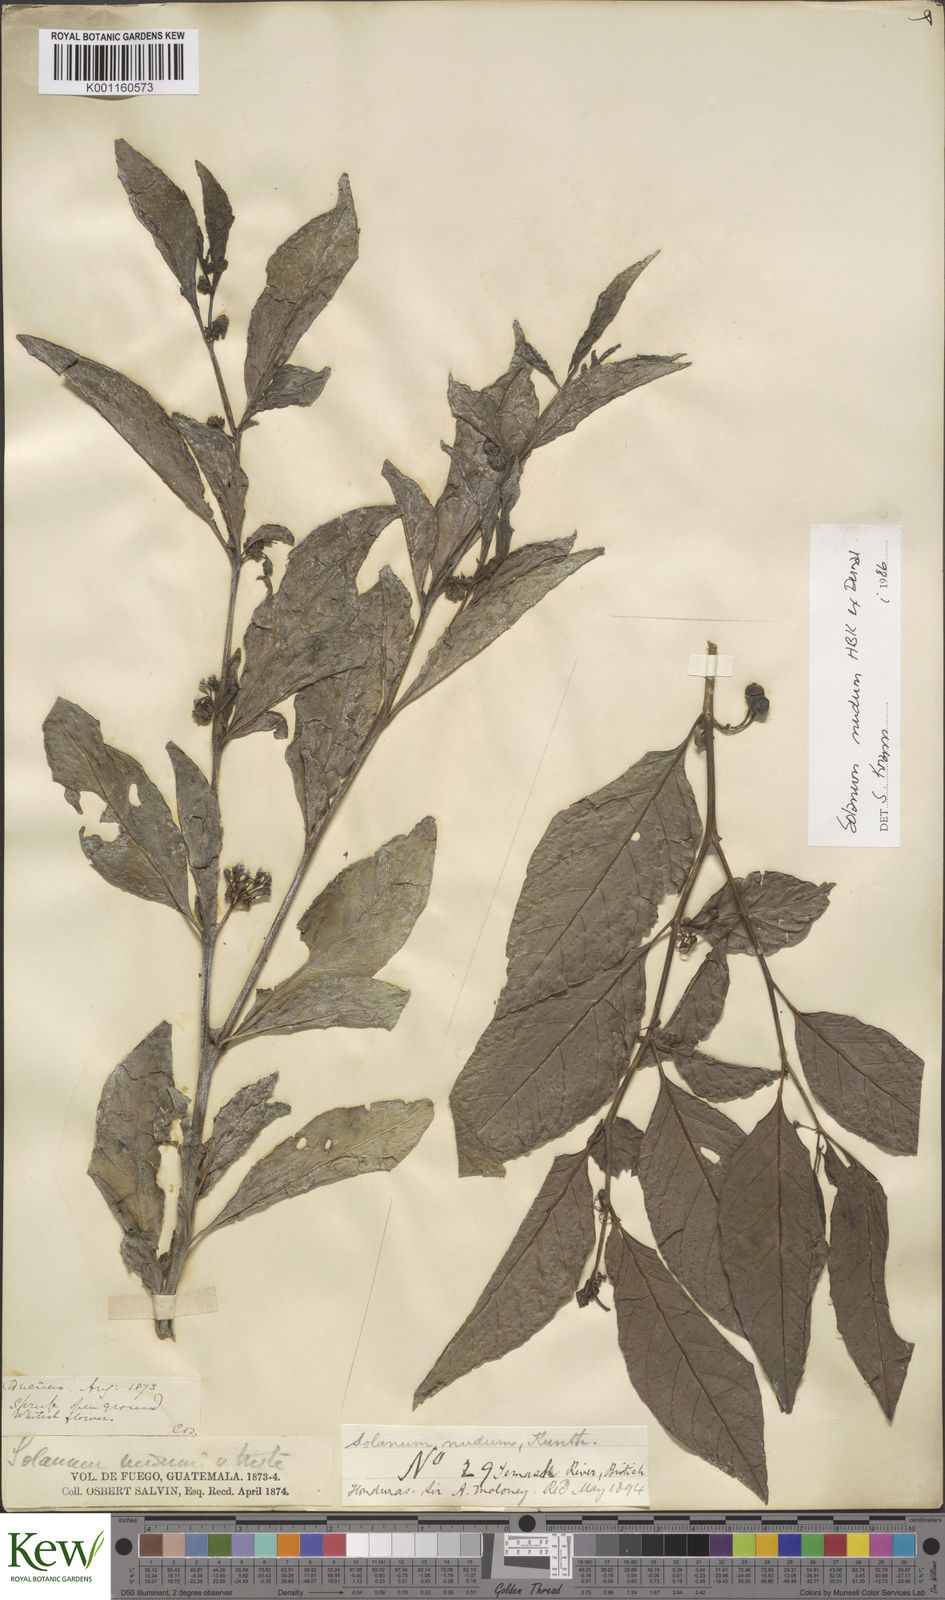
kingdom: Plantae
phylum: Tracheophyta
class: Magnoliopsida
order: Solanales
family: Solanaceae
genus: Solanum
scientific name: Solanum nudum
